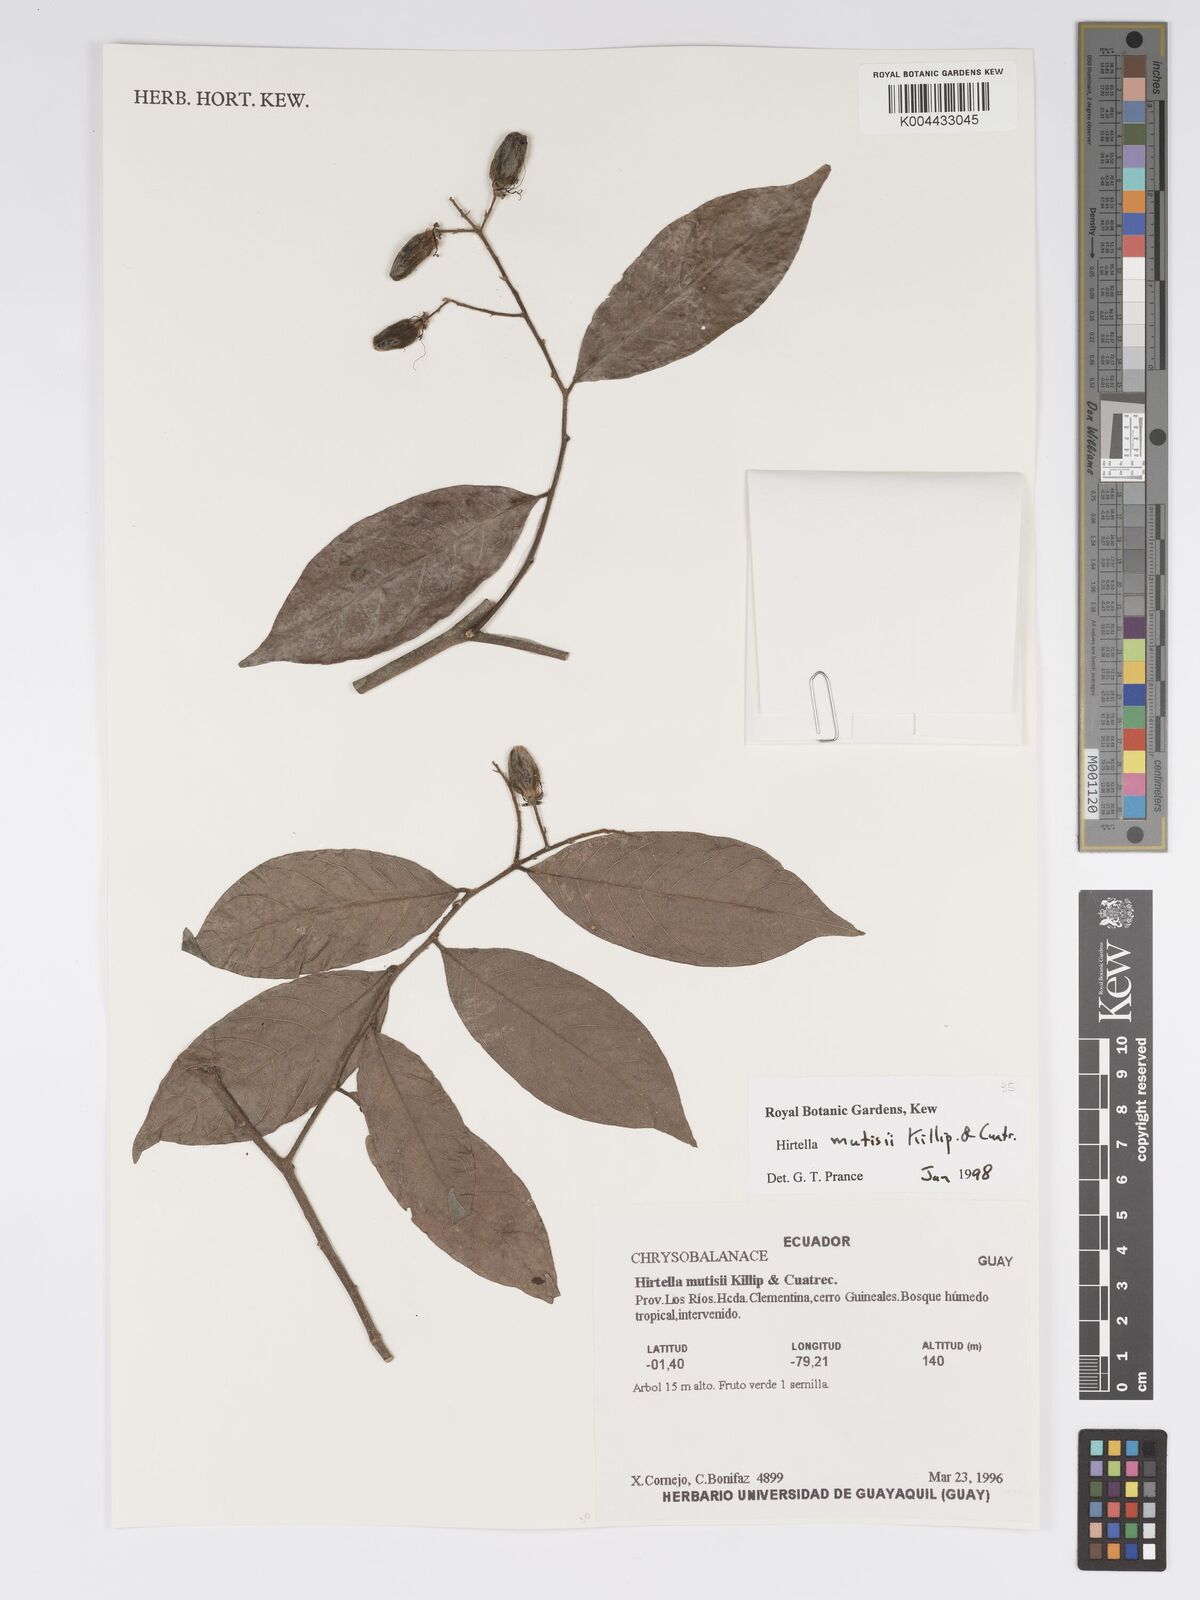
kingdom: Plantae
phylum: Tracheophyta
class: Magnoliopsida
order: Malpighiales
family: Chrysobalanaceae
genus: Hirtella
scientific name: Hirtella mutisii
